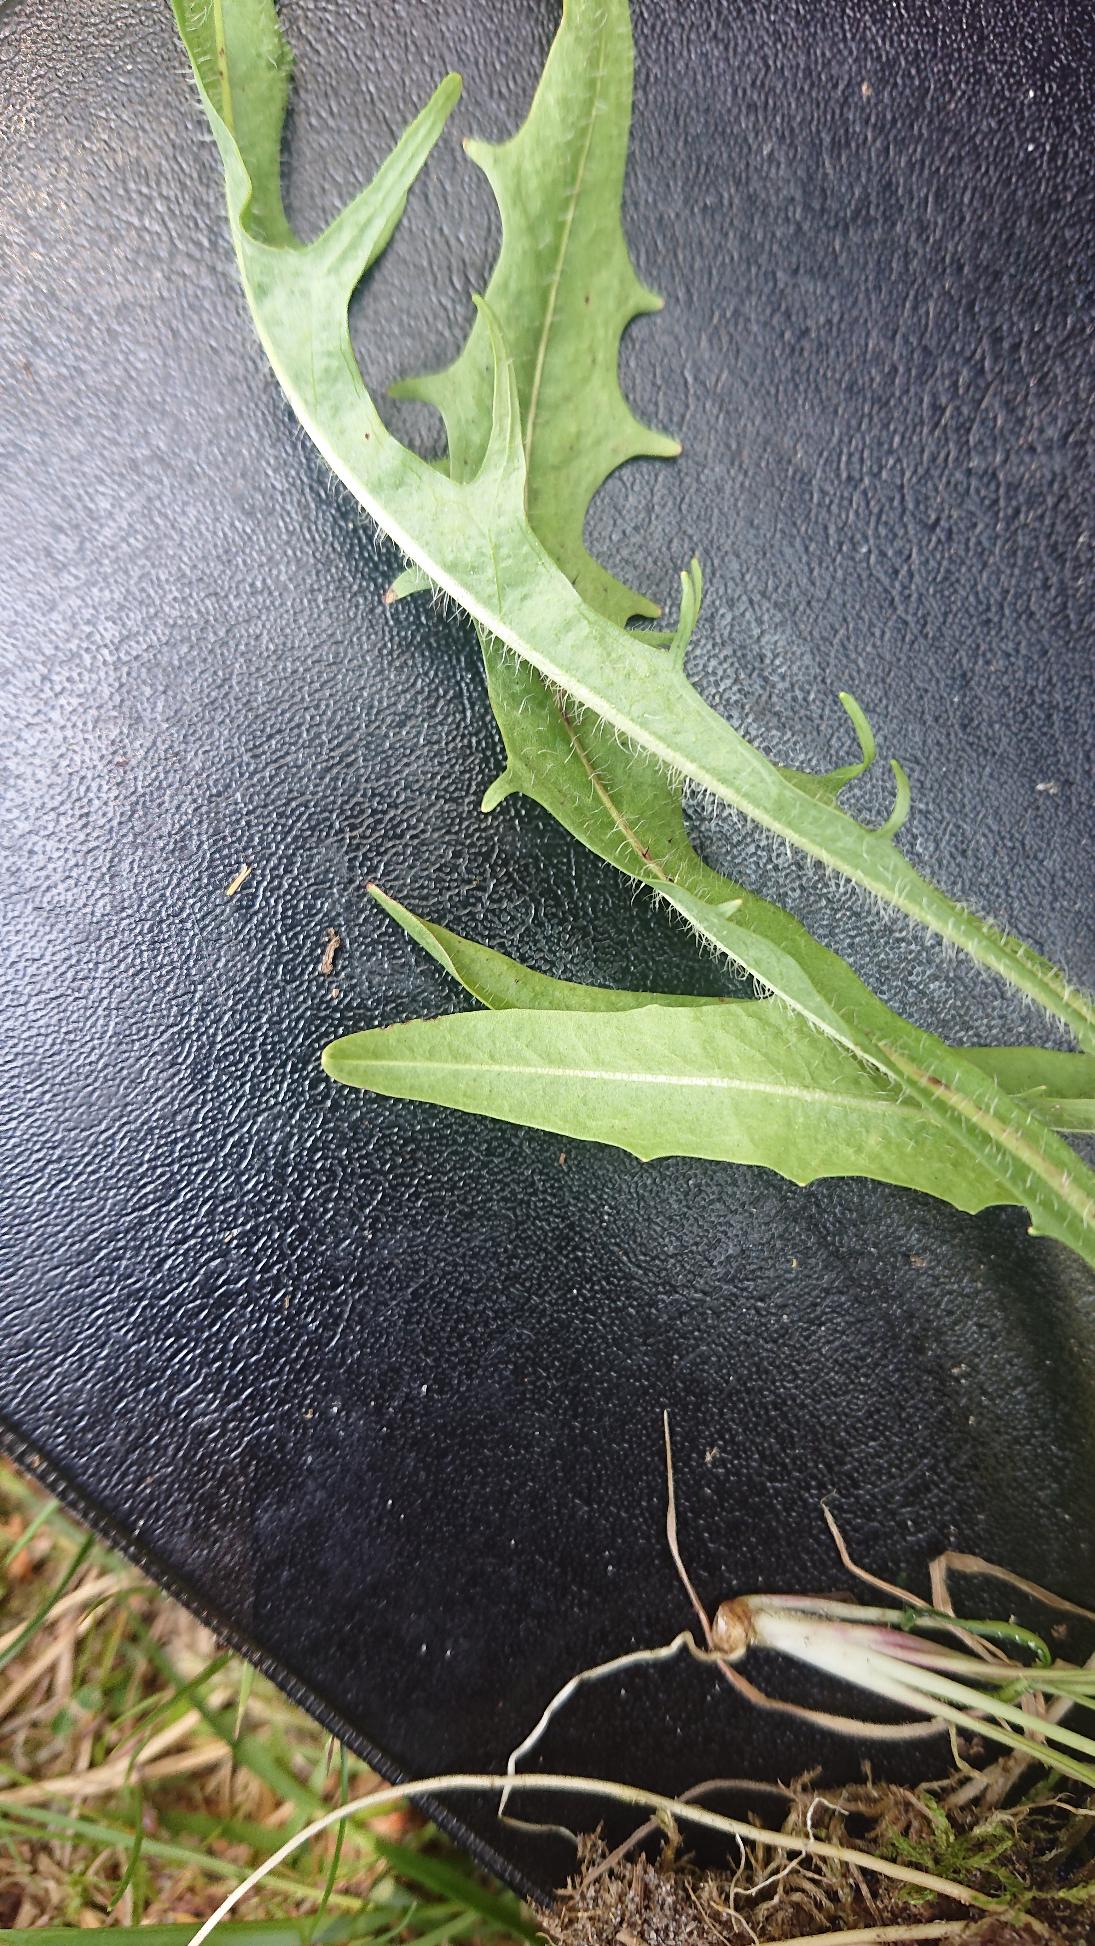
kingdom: Plantae
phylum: Tracheophyta
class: Magnoliopsida
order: Asterales
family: Asteraceae
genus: Scorzoneroides
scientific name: Scorzoneroides autumnalis
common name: Høst-borst
